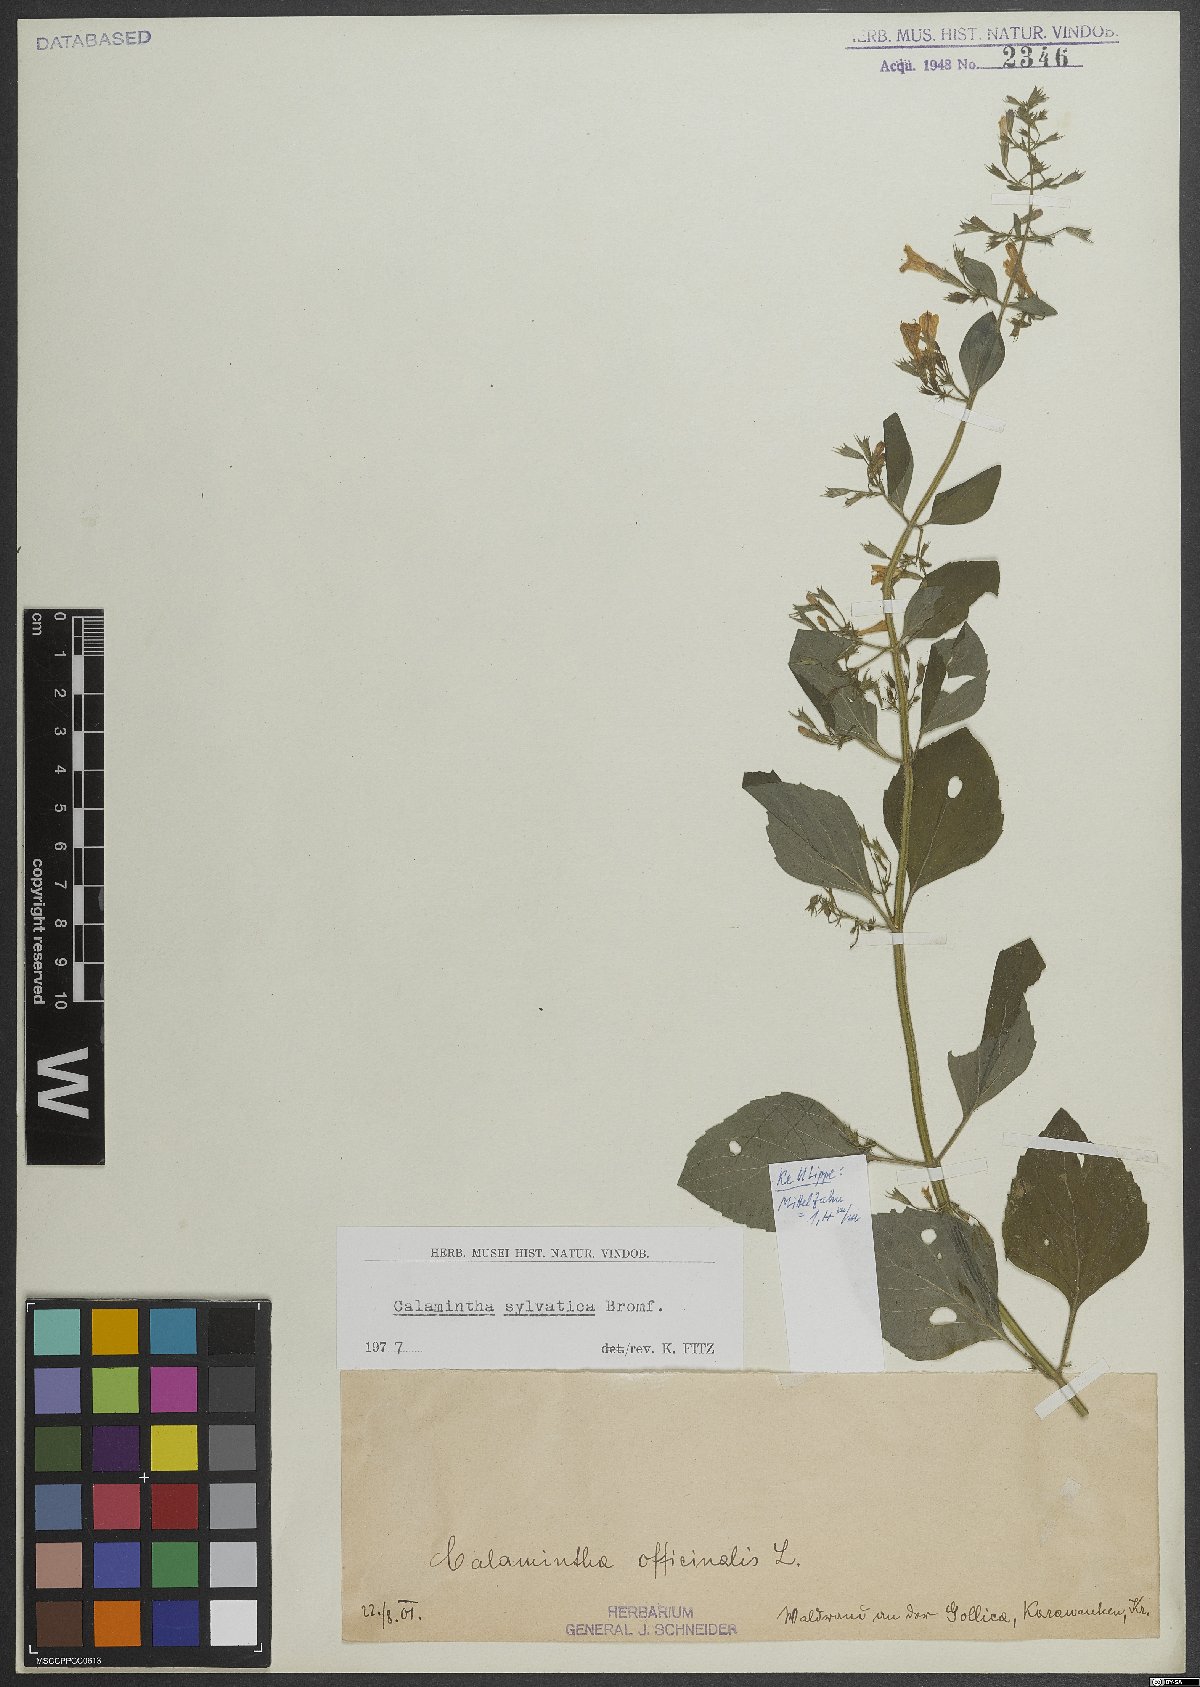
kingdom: Plantae
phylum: Tracheophyta
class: Magnoliopsida
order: Lamiales
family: Lamiaceae
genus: Clinopodium
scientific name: Clinopodium menthifolium
